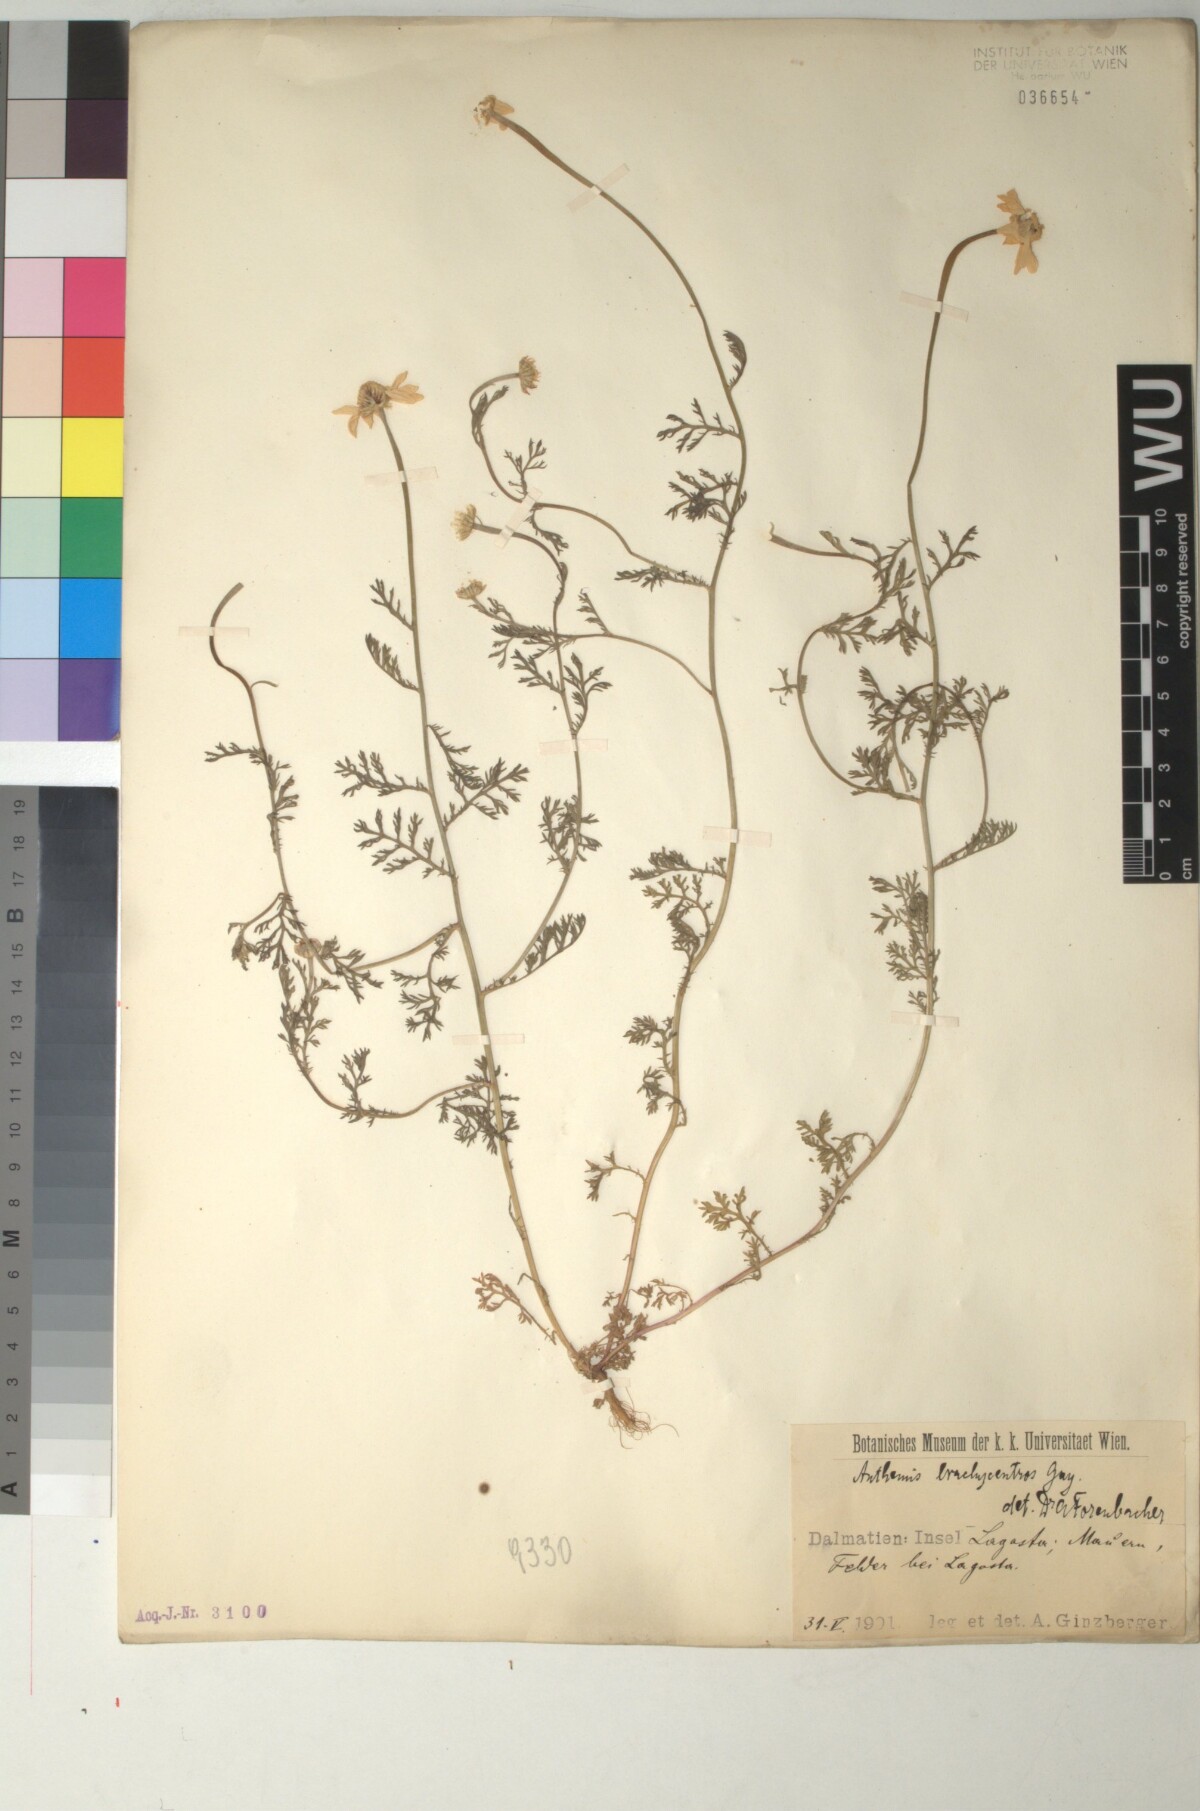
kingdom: Plantae
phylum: Tracheophyta
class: Magnoliopsida
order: Asterales
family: Asteraceae
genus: Cota
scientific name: Cota segetalis
